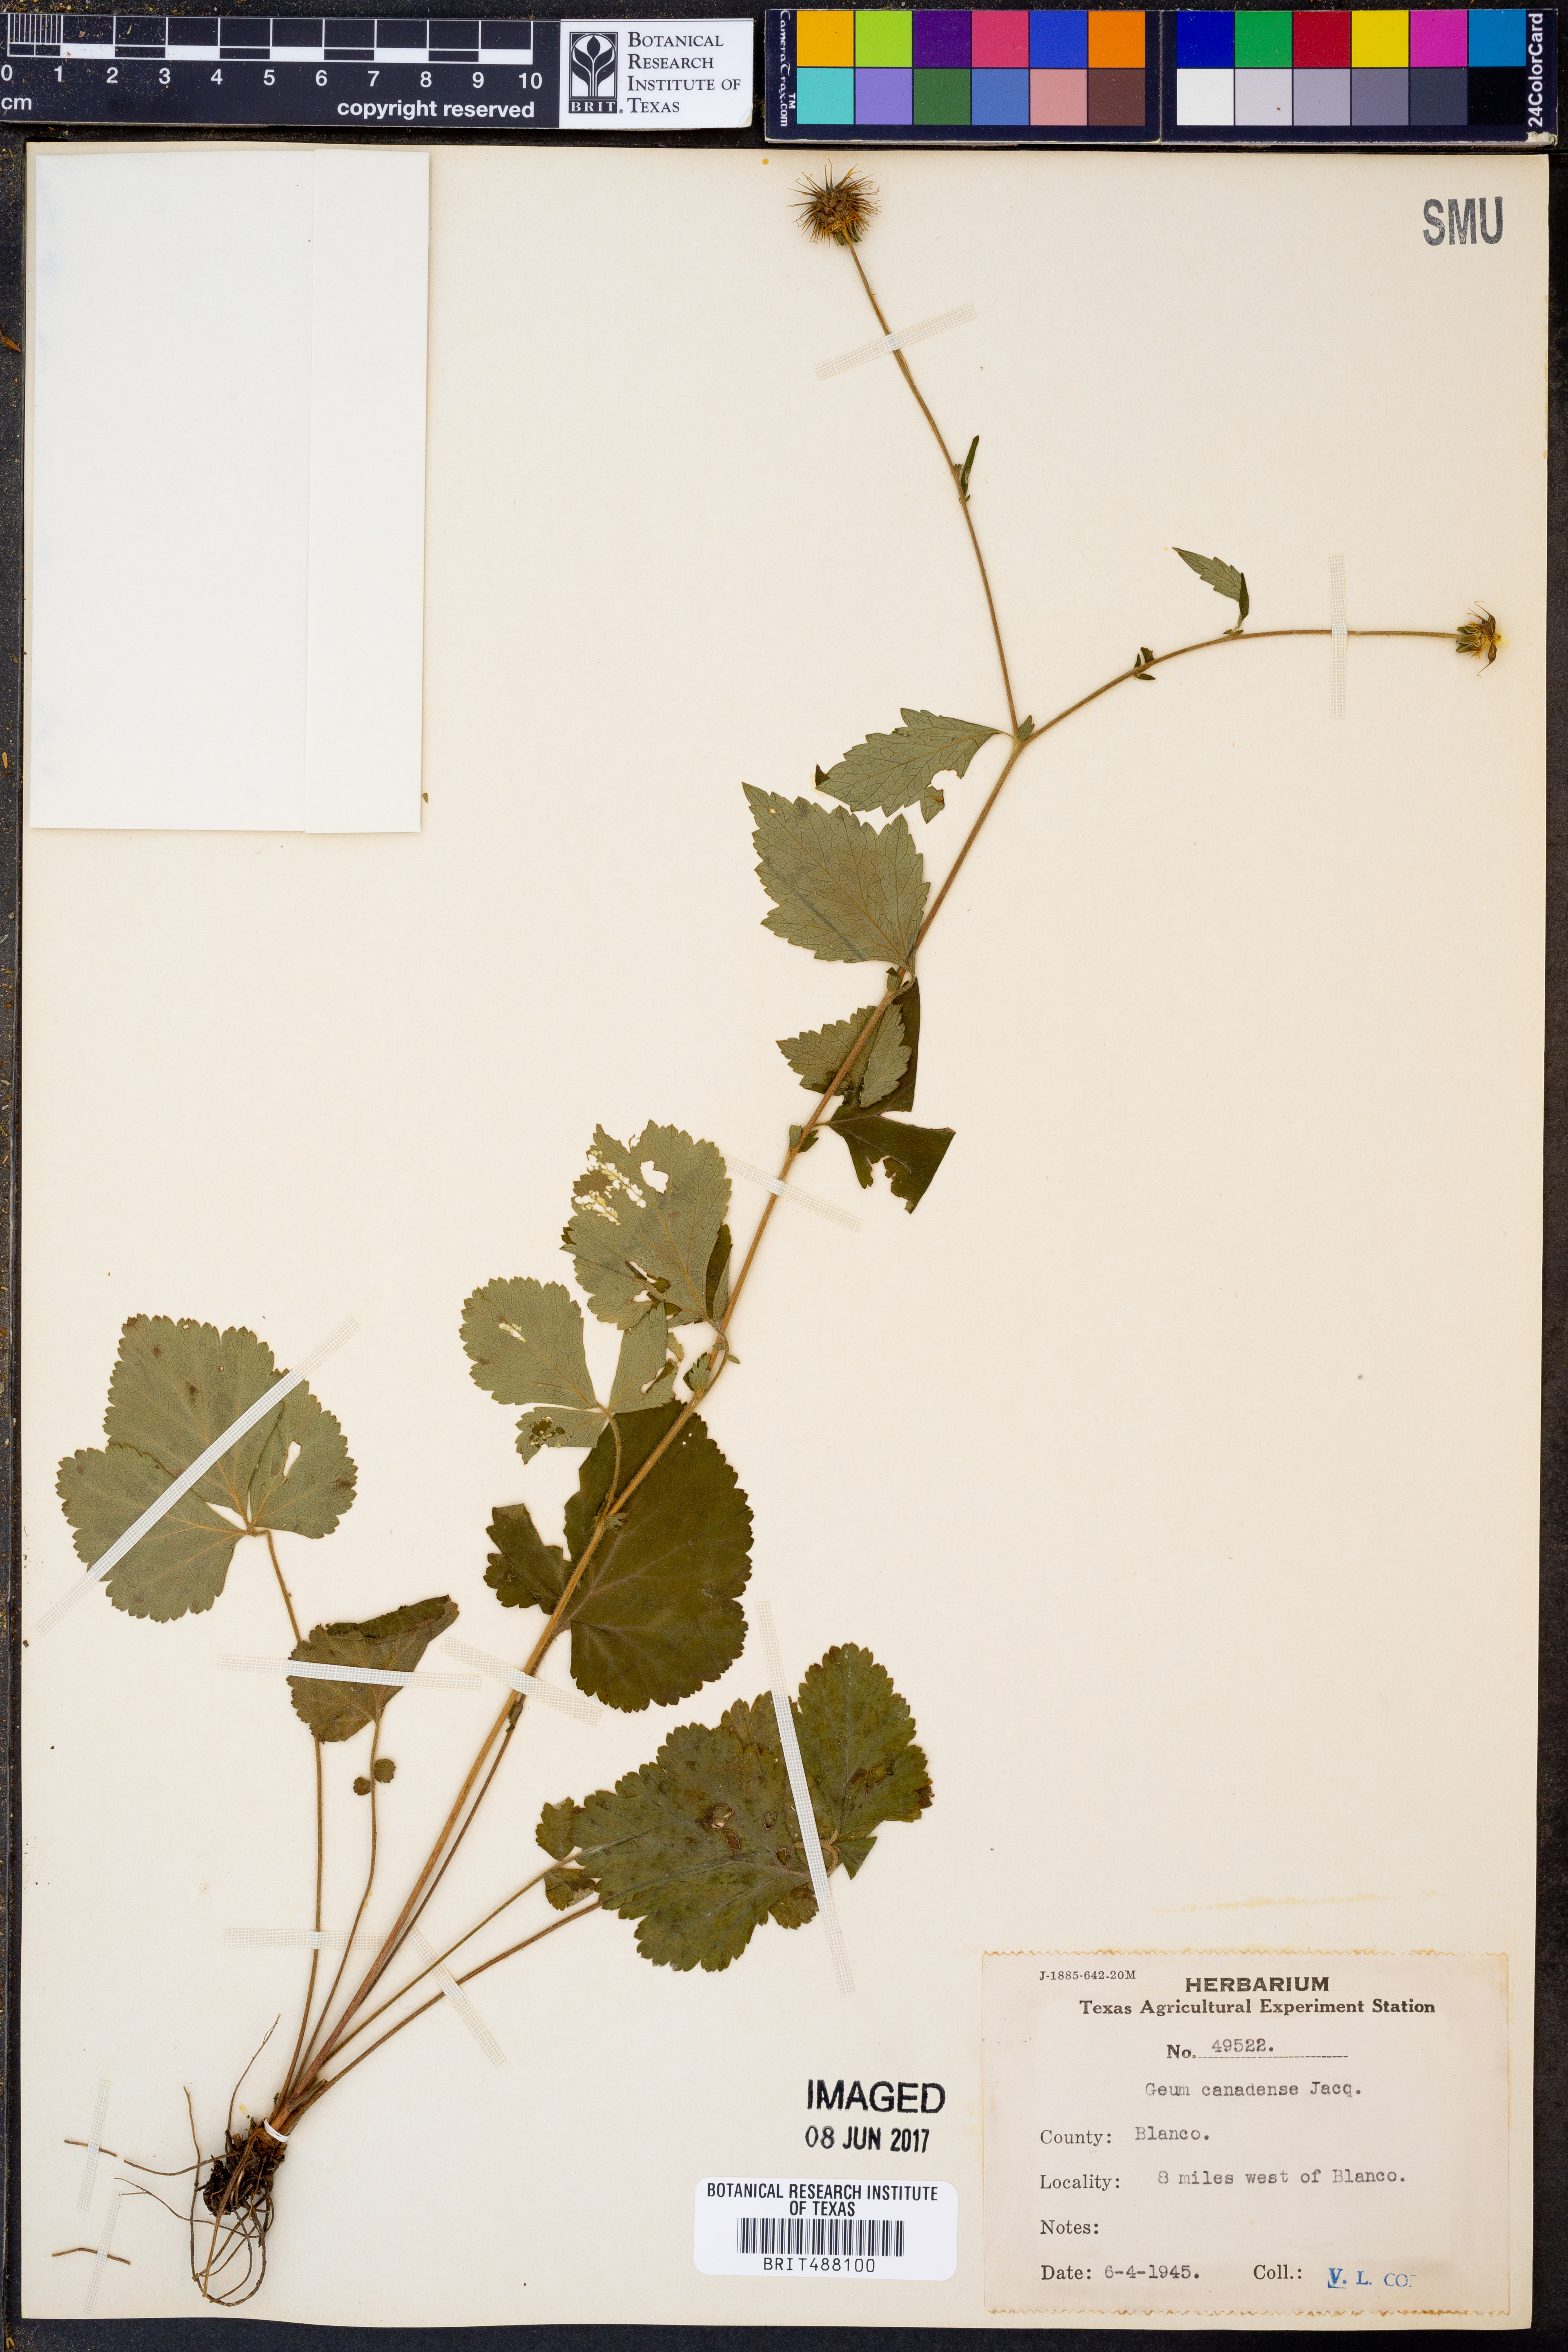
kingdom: Plantae
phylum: Tracheophyta
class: Magnoliopsida
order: Rosales
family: Rosaceae
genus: Geum
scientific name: Geum canadense
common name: White avens
